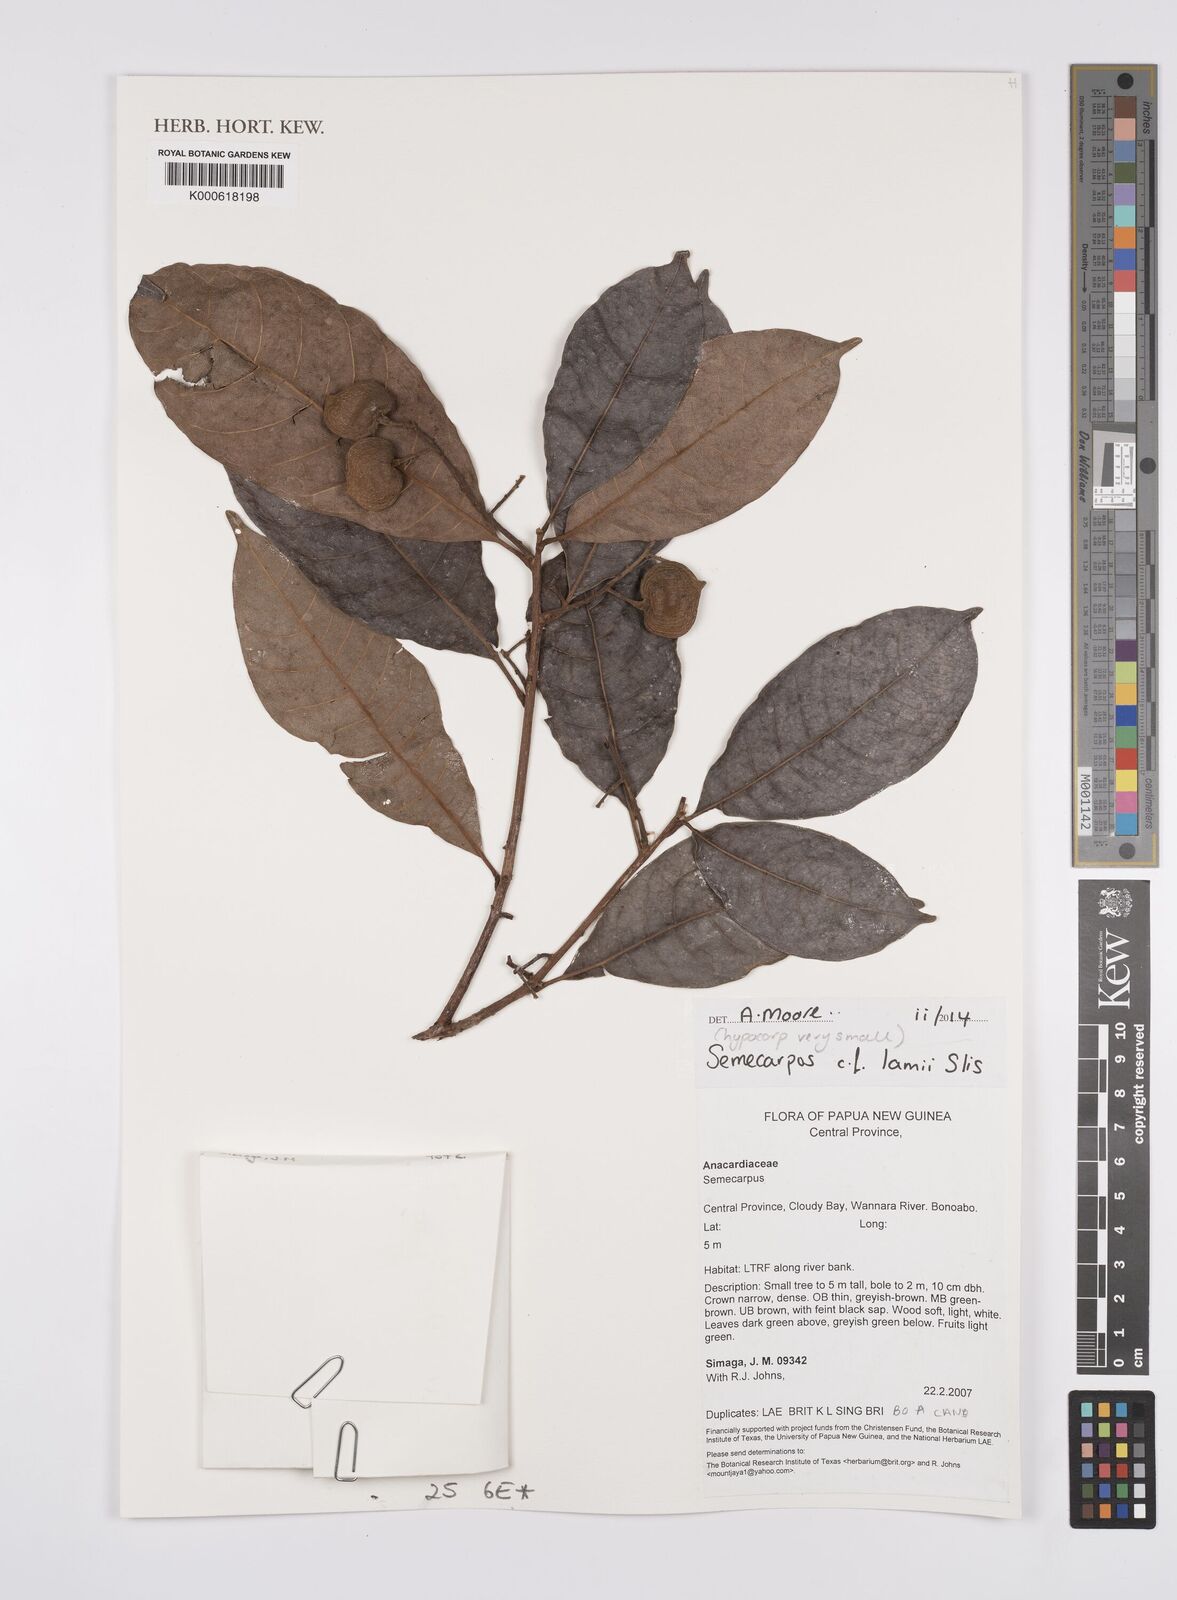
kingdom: Plantae
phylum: Tracheophyta
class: Magnoliopsida
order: Sapindales
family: Anacardiaceae
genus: Semecarpus
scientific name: Semecarpus lamii
